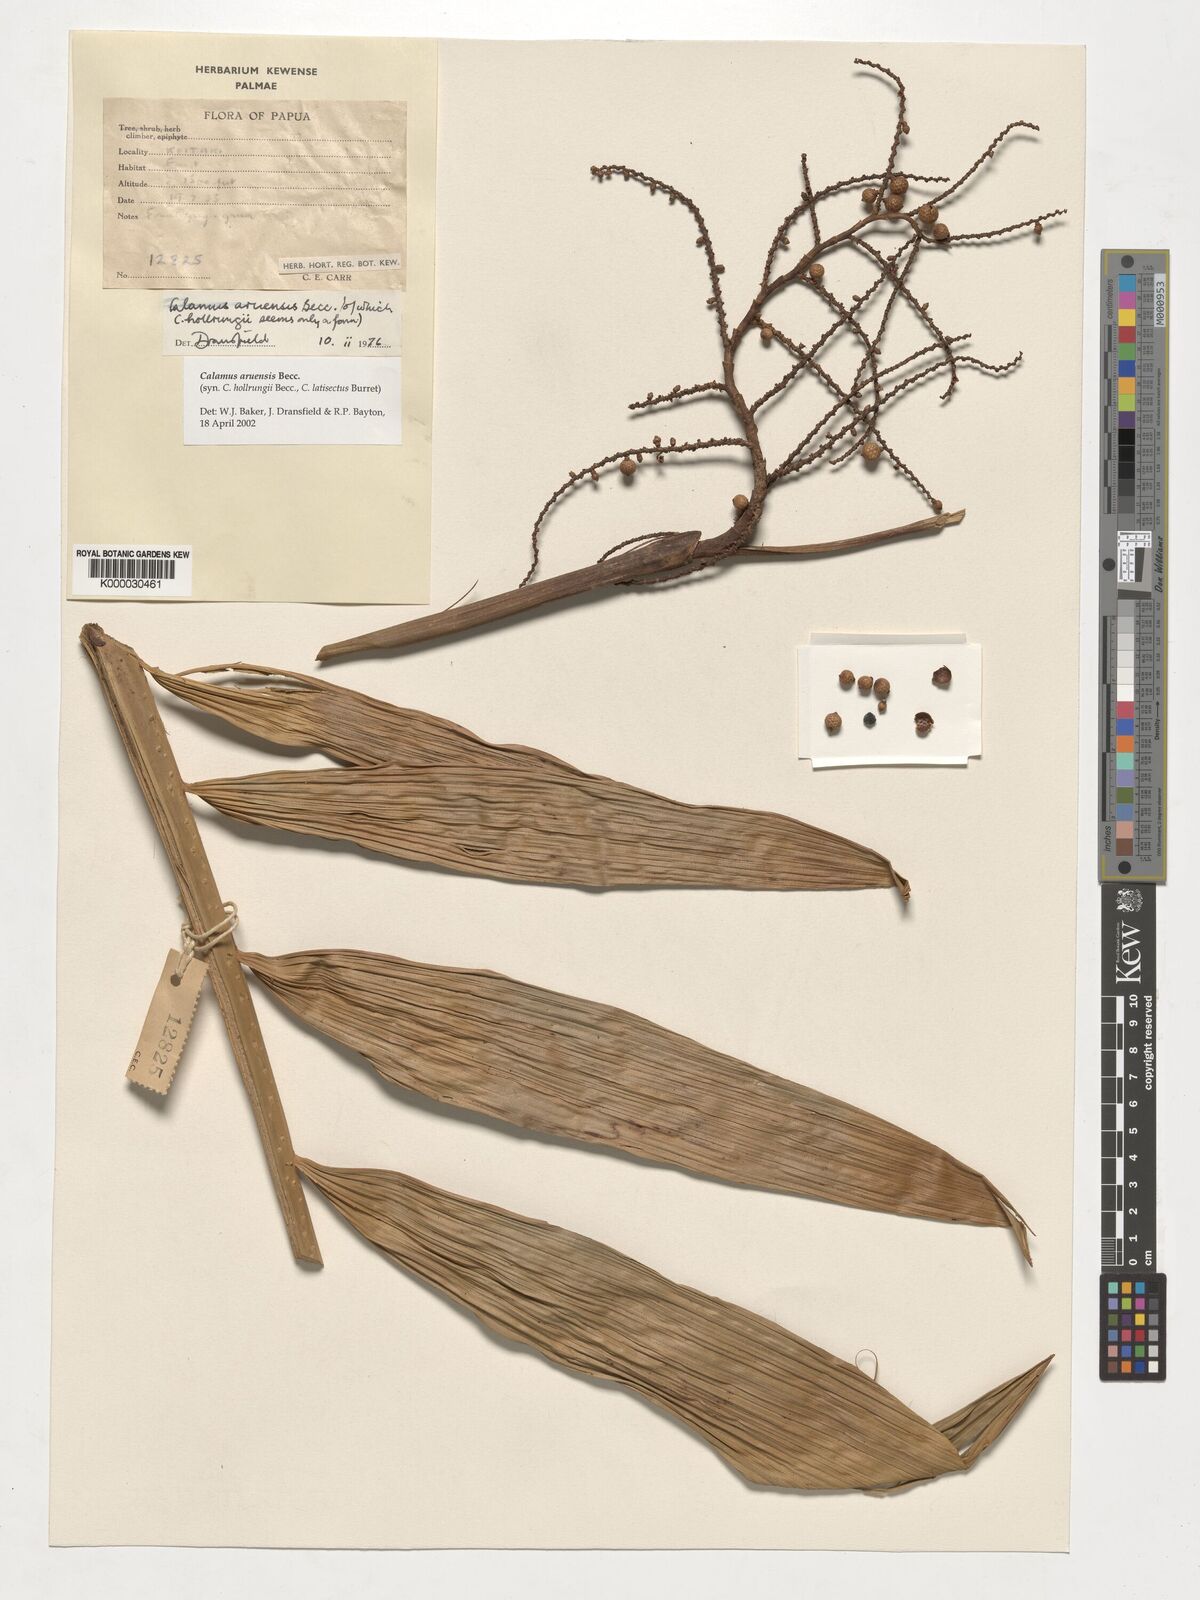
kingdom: Plantae
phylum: Tracheophyta
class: Liliopsida
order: Arecales
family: Arecaceae
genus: Calamus
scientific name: Calamus aruensis
